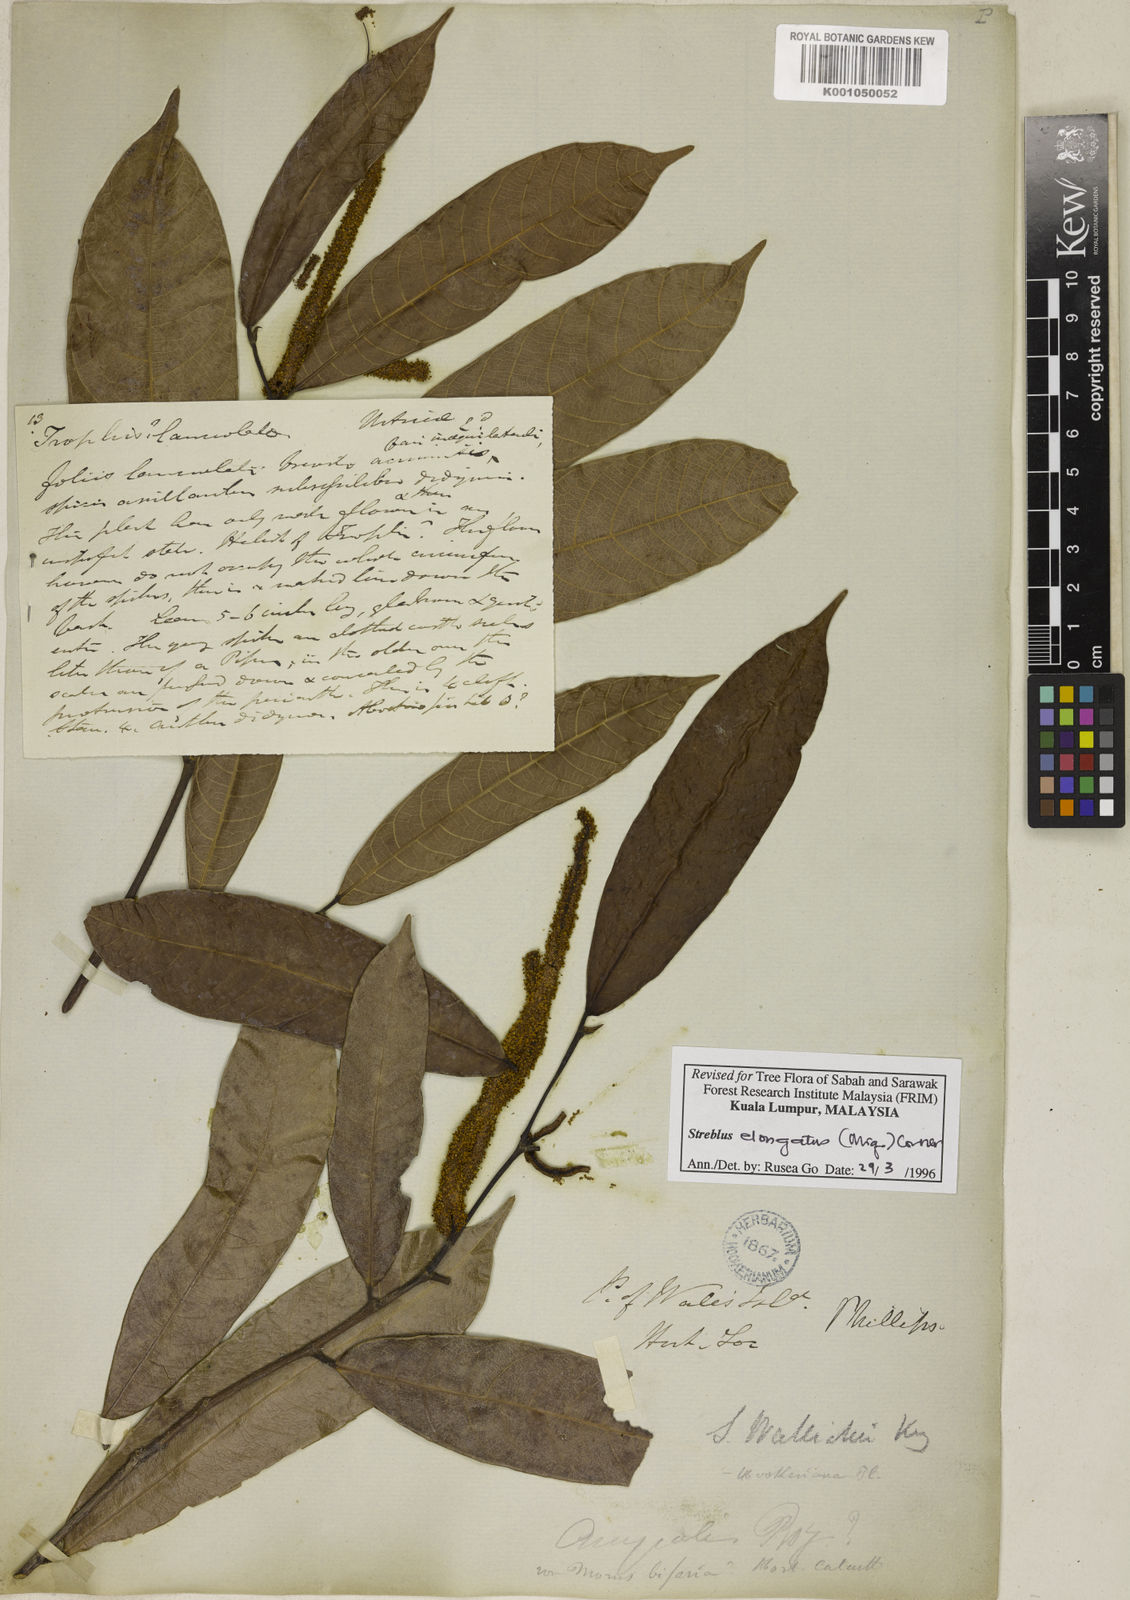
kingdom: Plantae
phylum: Tracheophyta
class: Magnoliopsida
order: Rosales
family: Moraceae
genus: Sloetia
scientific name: Sloetia elongata
